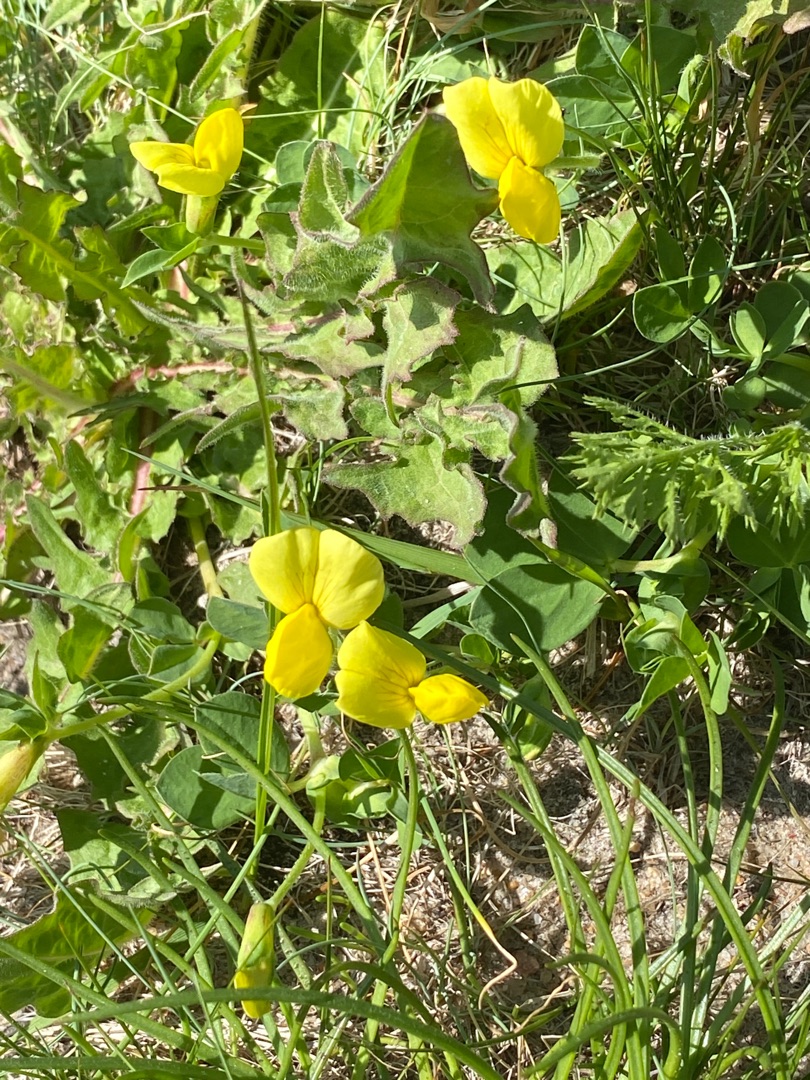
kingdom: Plantae
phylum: Tracheophyta
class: Magnoliopsida
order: Fabales
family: Fabaceae
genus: Lotus
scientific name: Lotus corniculatus
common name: Almindelig kællingetand
